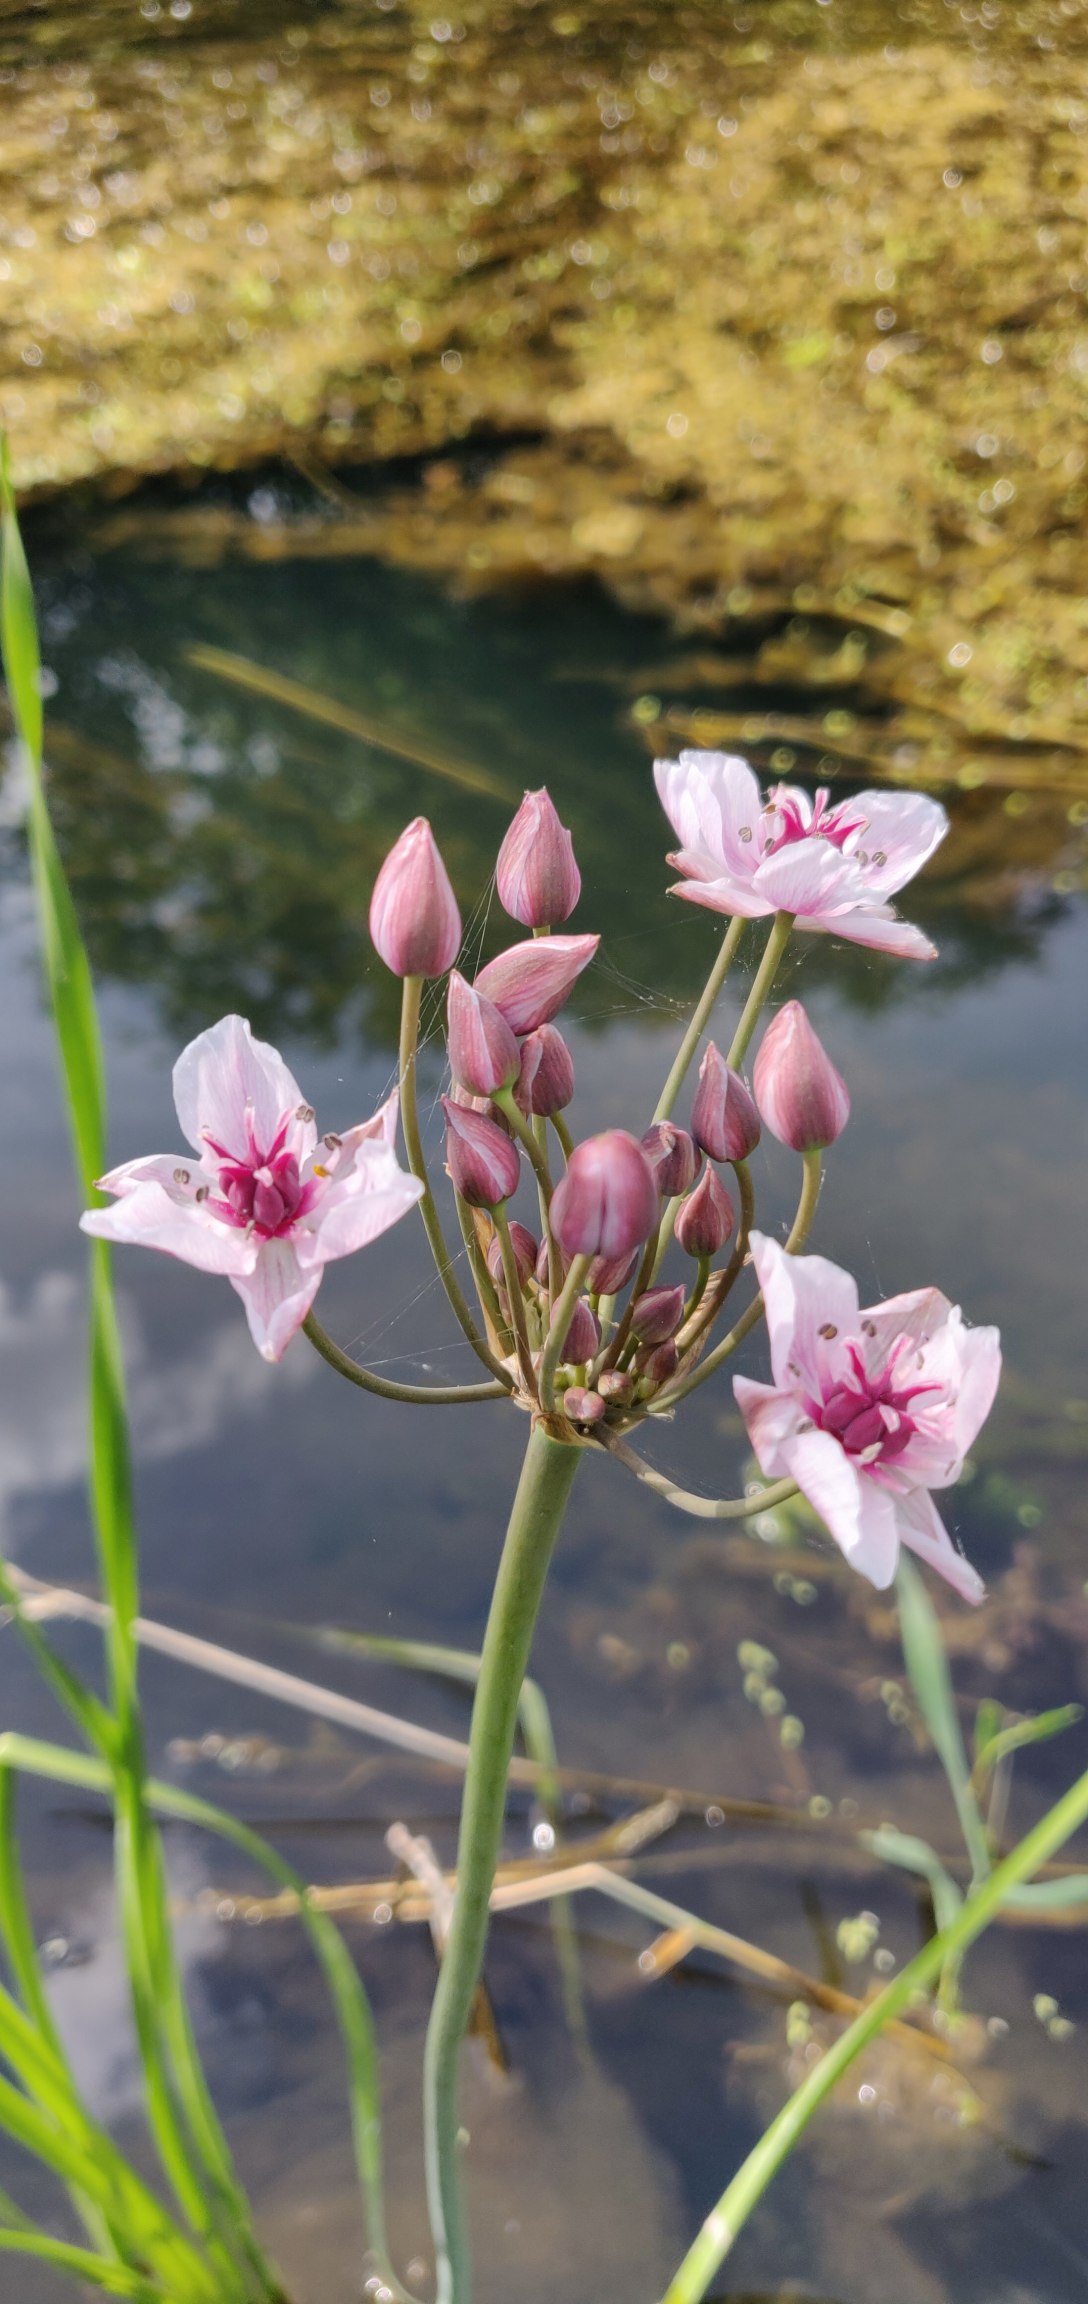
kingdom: Plantae
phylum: Tracheophyta
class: Liliopsida
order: Alismatales
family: Butomaceae
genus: Butomus
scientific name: Butomus umbellatus
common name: Brudelys
